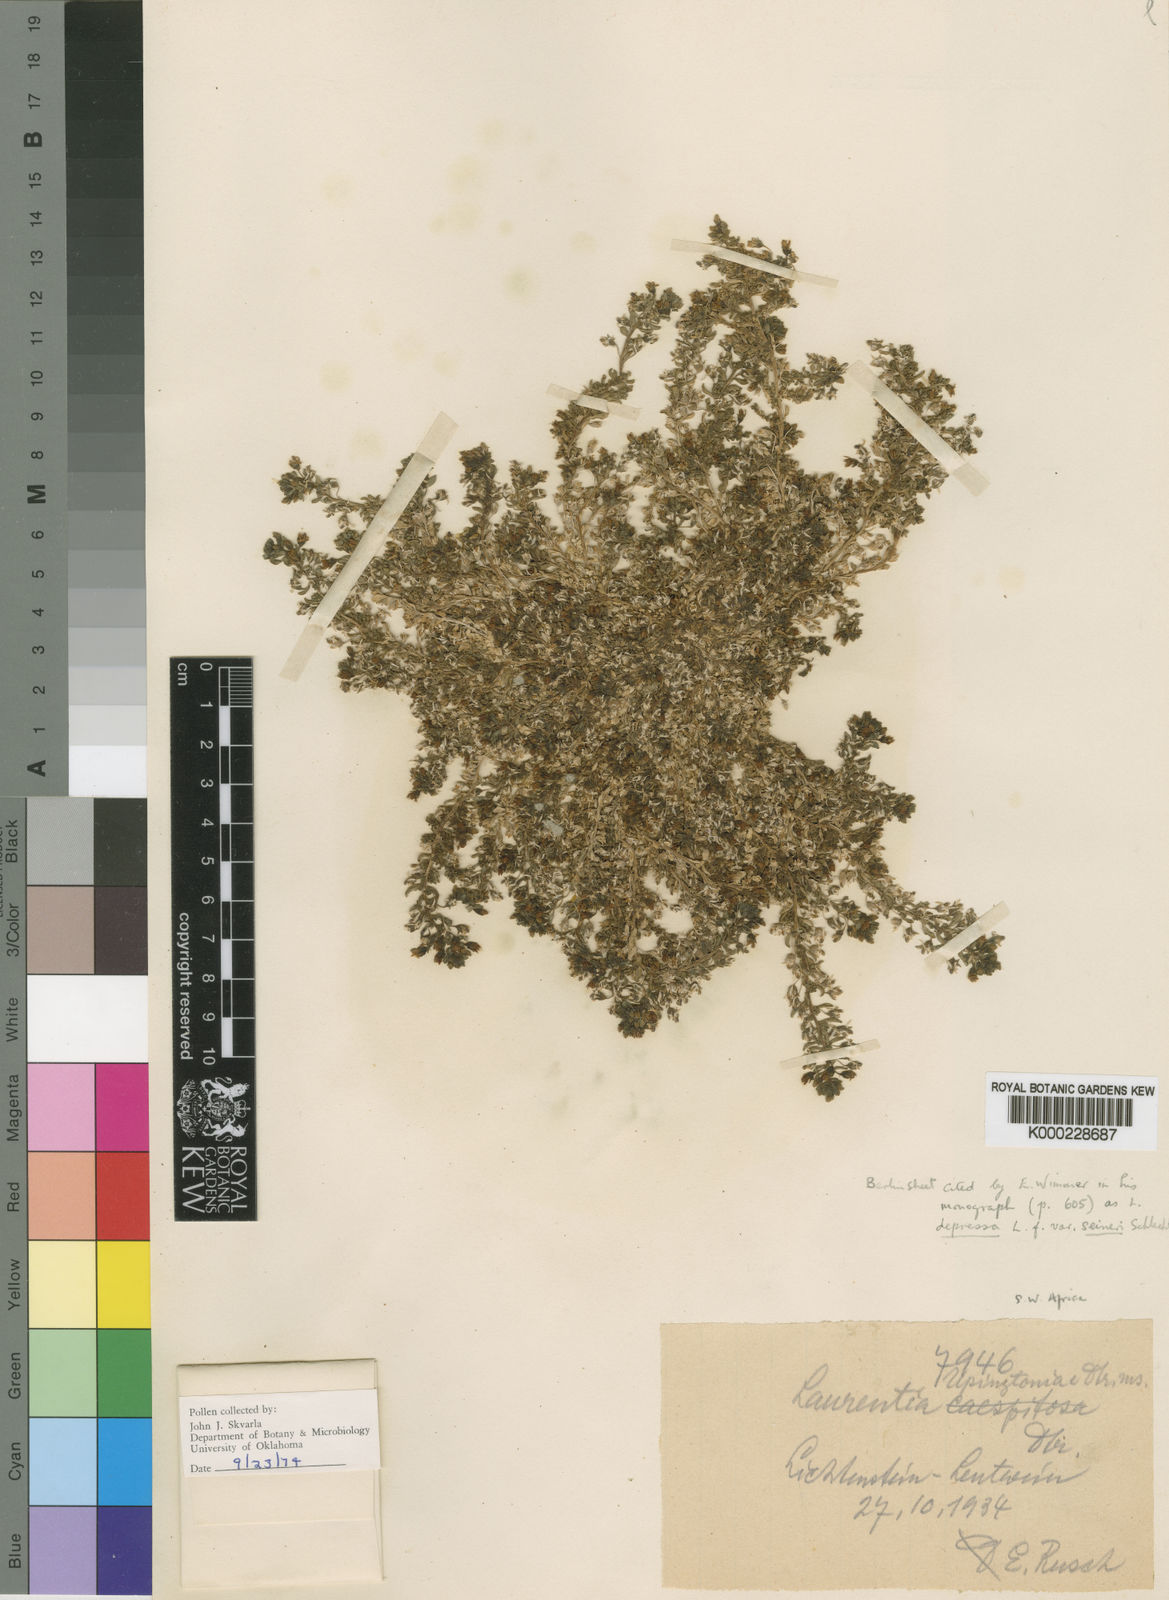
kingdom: Plantae
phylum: Tracheophyta
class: Magnoliopsida
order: Asterales
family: Campanulaceae
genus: Monopsis
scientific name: Monopsis debilis
